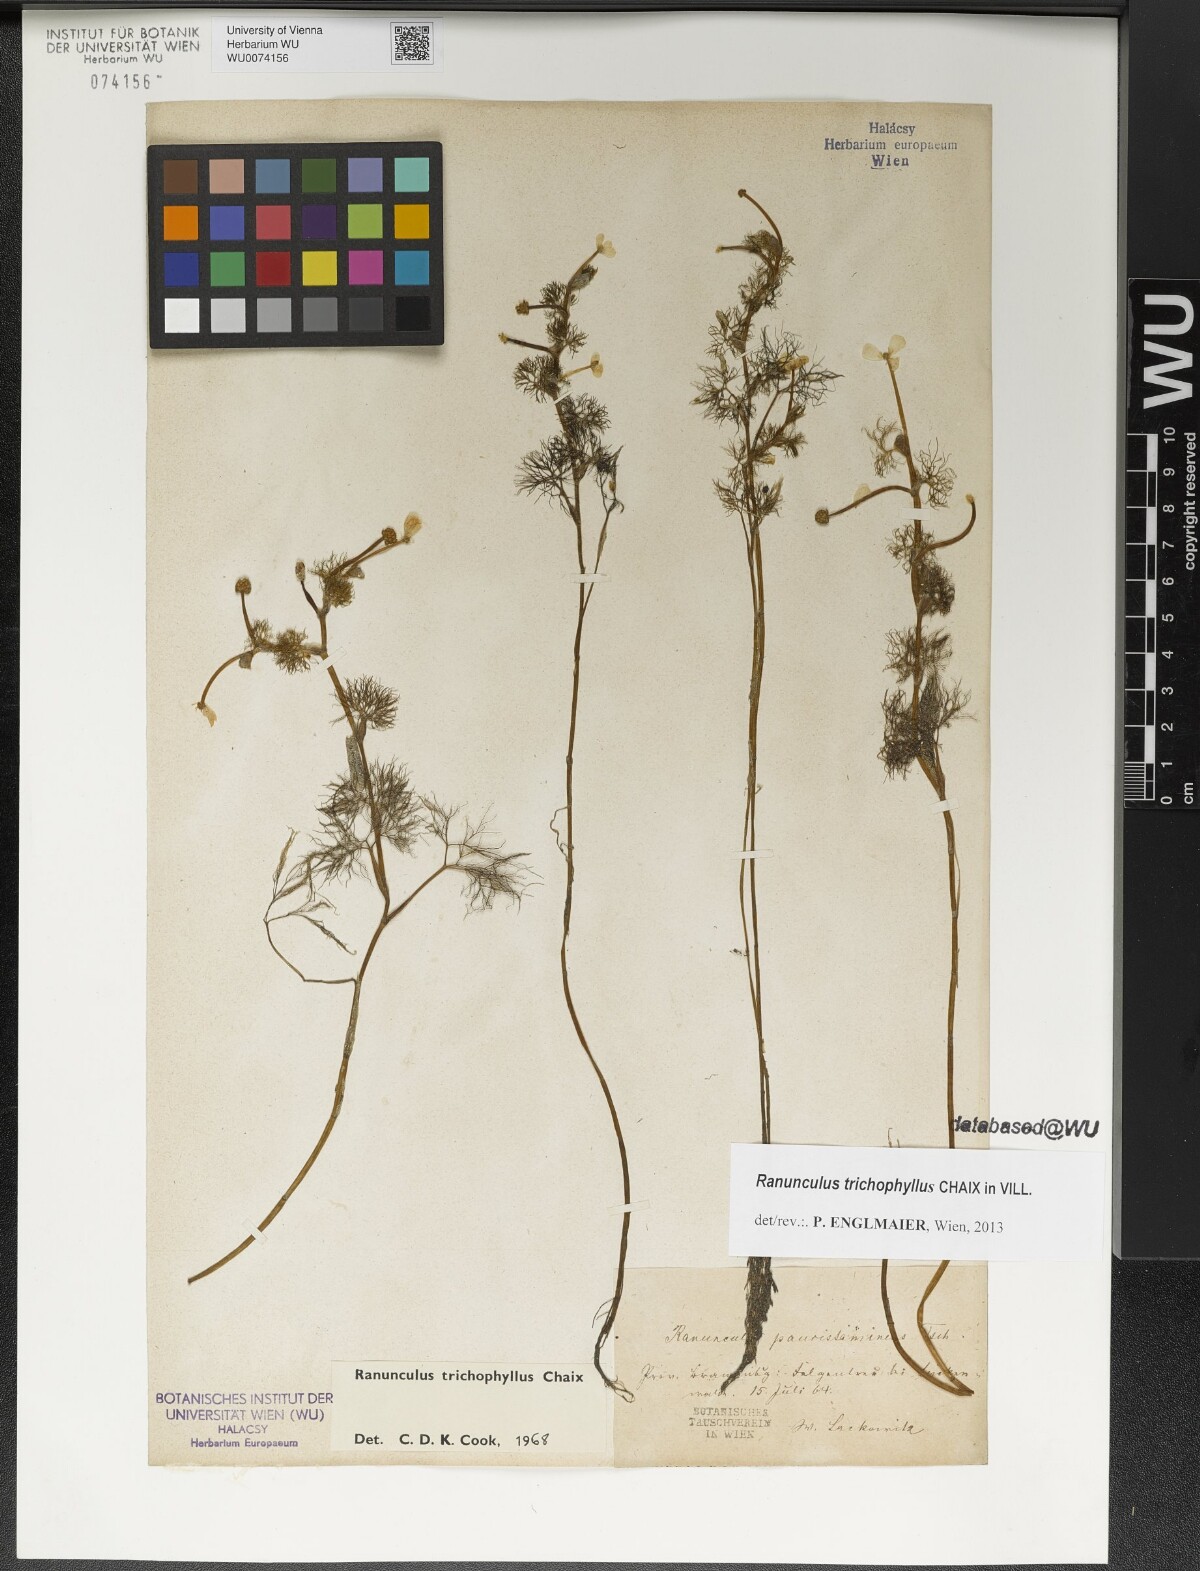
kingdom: Plantae
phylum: Tracheophyta
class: Magnoliopsida
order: Ranunculales
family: Ranunculaceae
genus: Ranunculus
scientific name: Ranunculus trichophyllus
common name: Thread-leaved water-crowfoot
